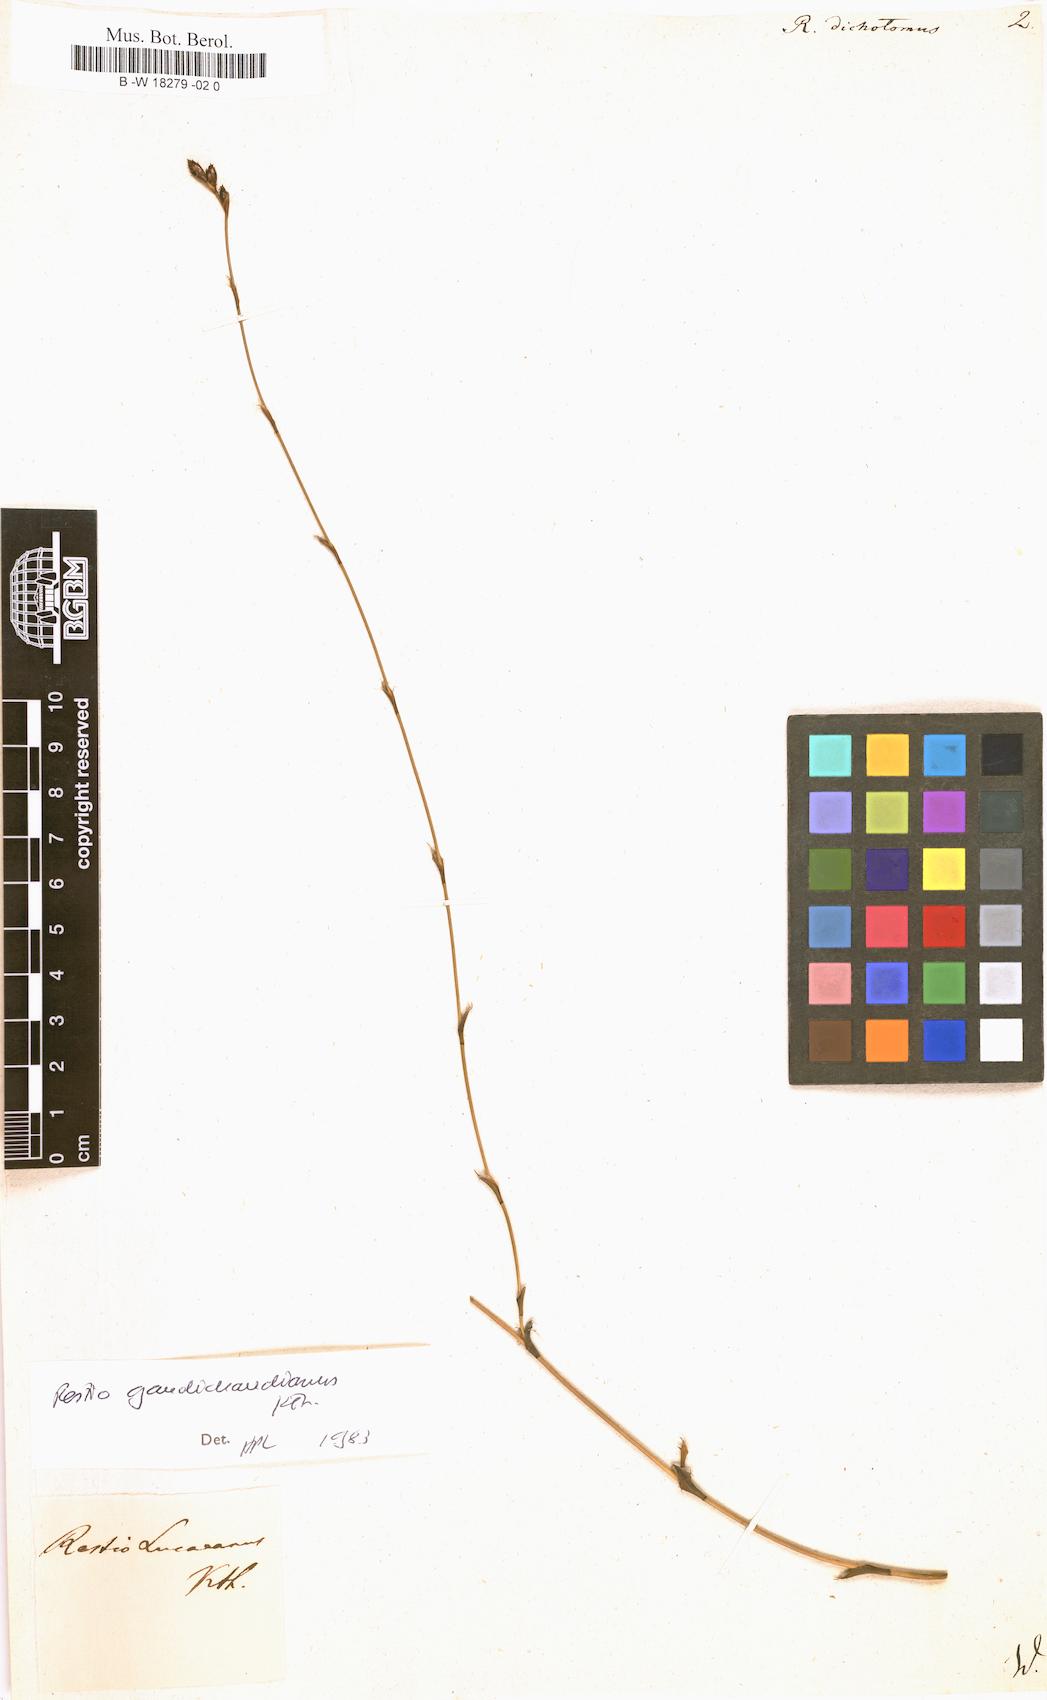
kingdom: Plantae
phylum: Tracheophyta
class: Liliopsida
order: Poales
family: Restionaceae
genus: Willdenowia
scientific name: Willdenowia teres
